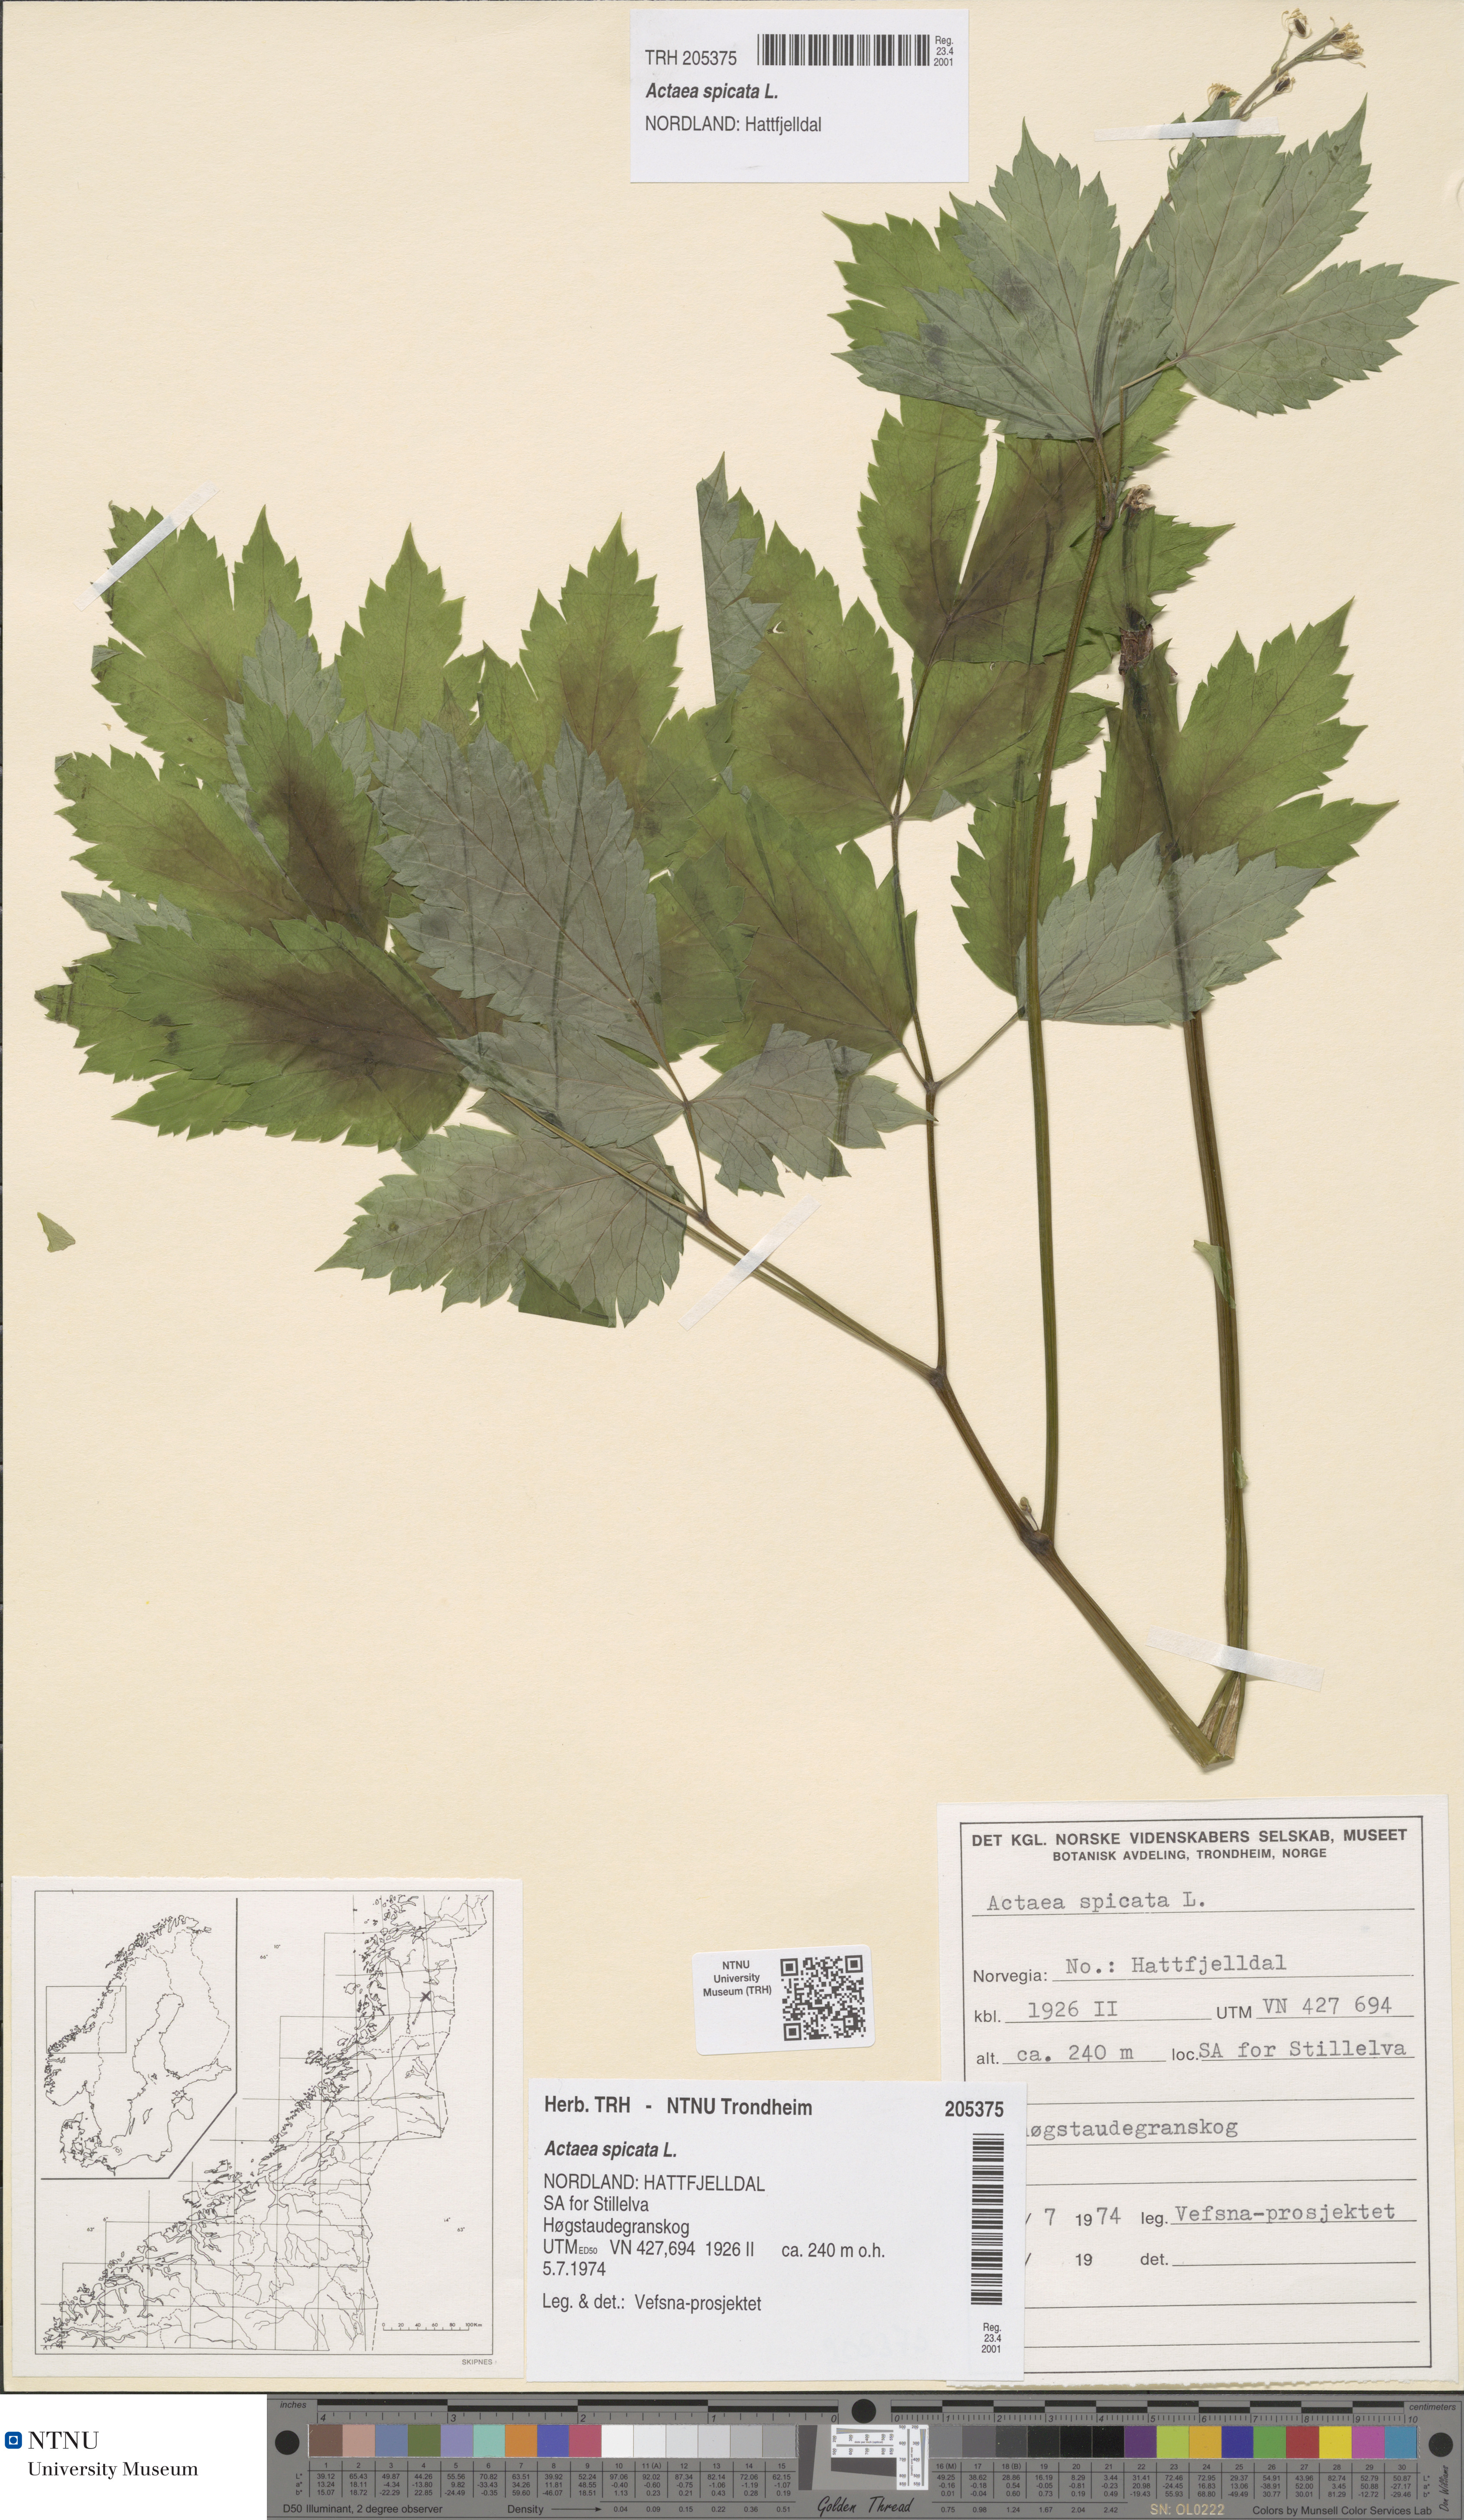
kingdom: Plantae
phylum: Tracheophyta
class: Magnoliopsida
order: Ranunculales
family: Ranunculaceae
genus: Actaea
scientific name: Actaea spicata
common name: Baneberry
